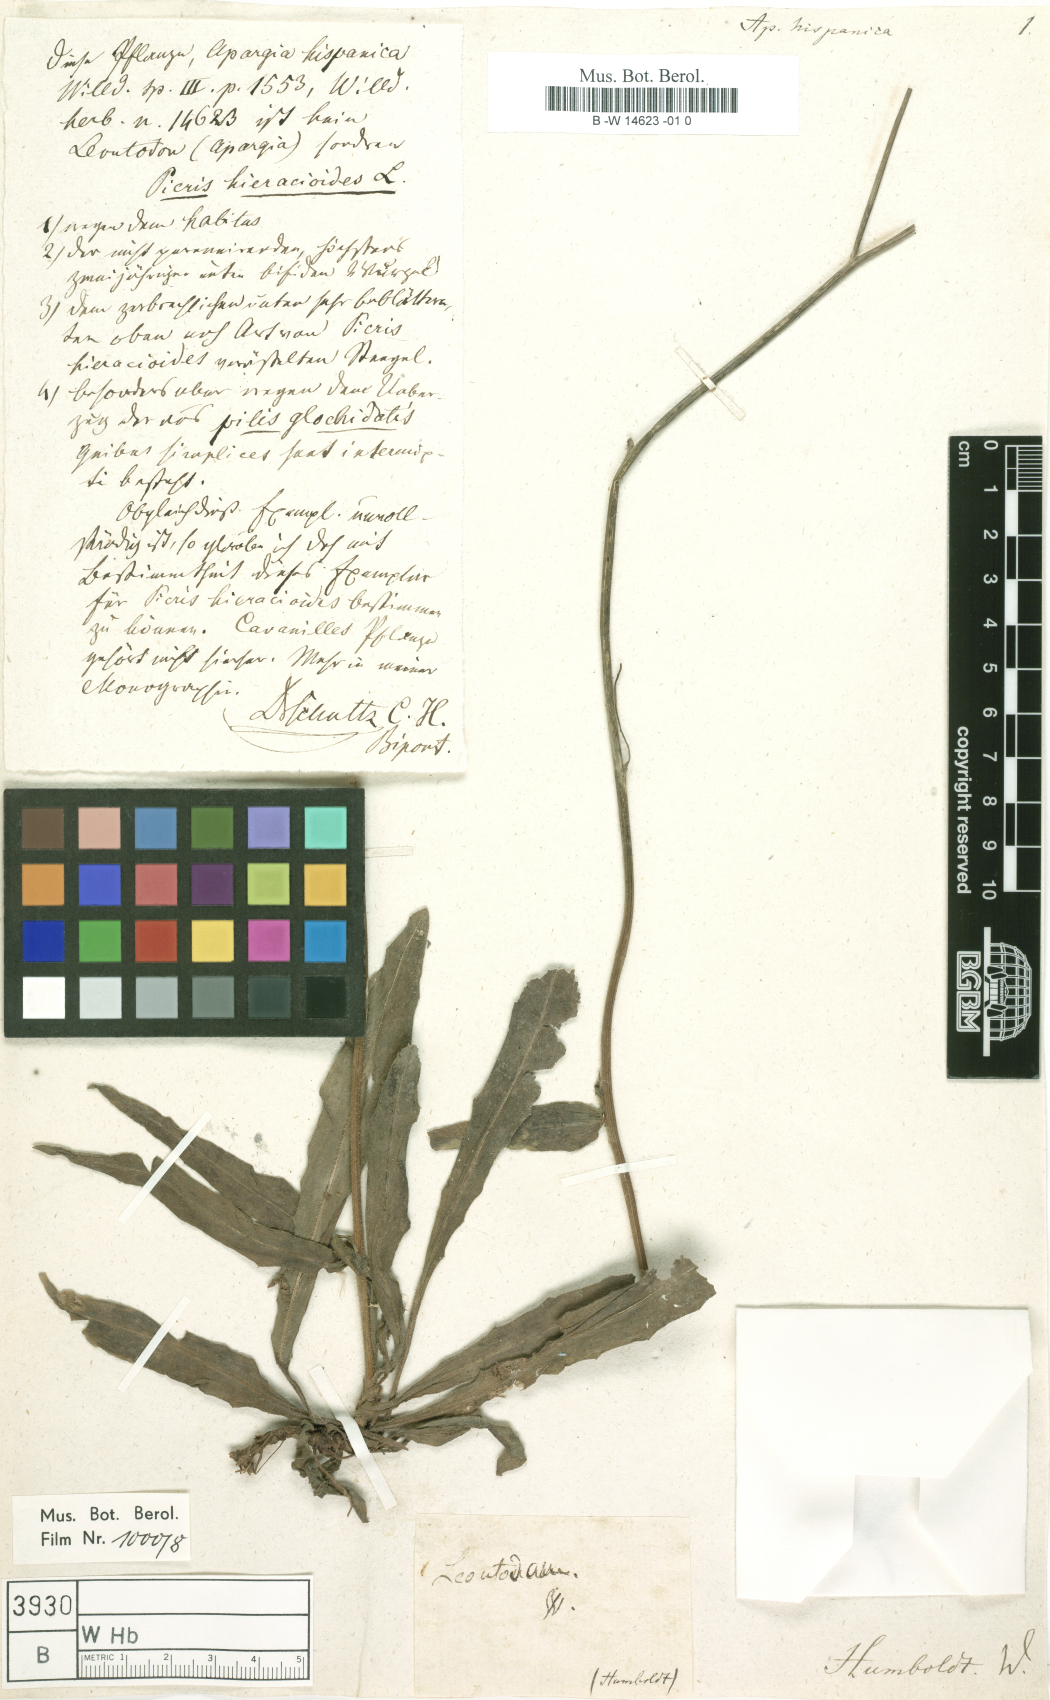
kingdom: Plantae
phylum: Tracheophyta
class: Magnoliopsida
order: Asterales
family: Asteraceae
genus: Picris
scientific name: Picris hispanica
